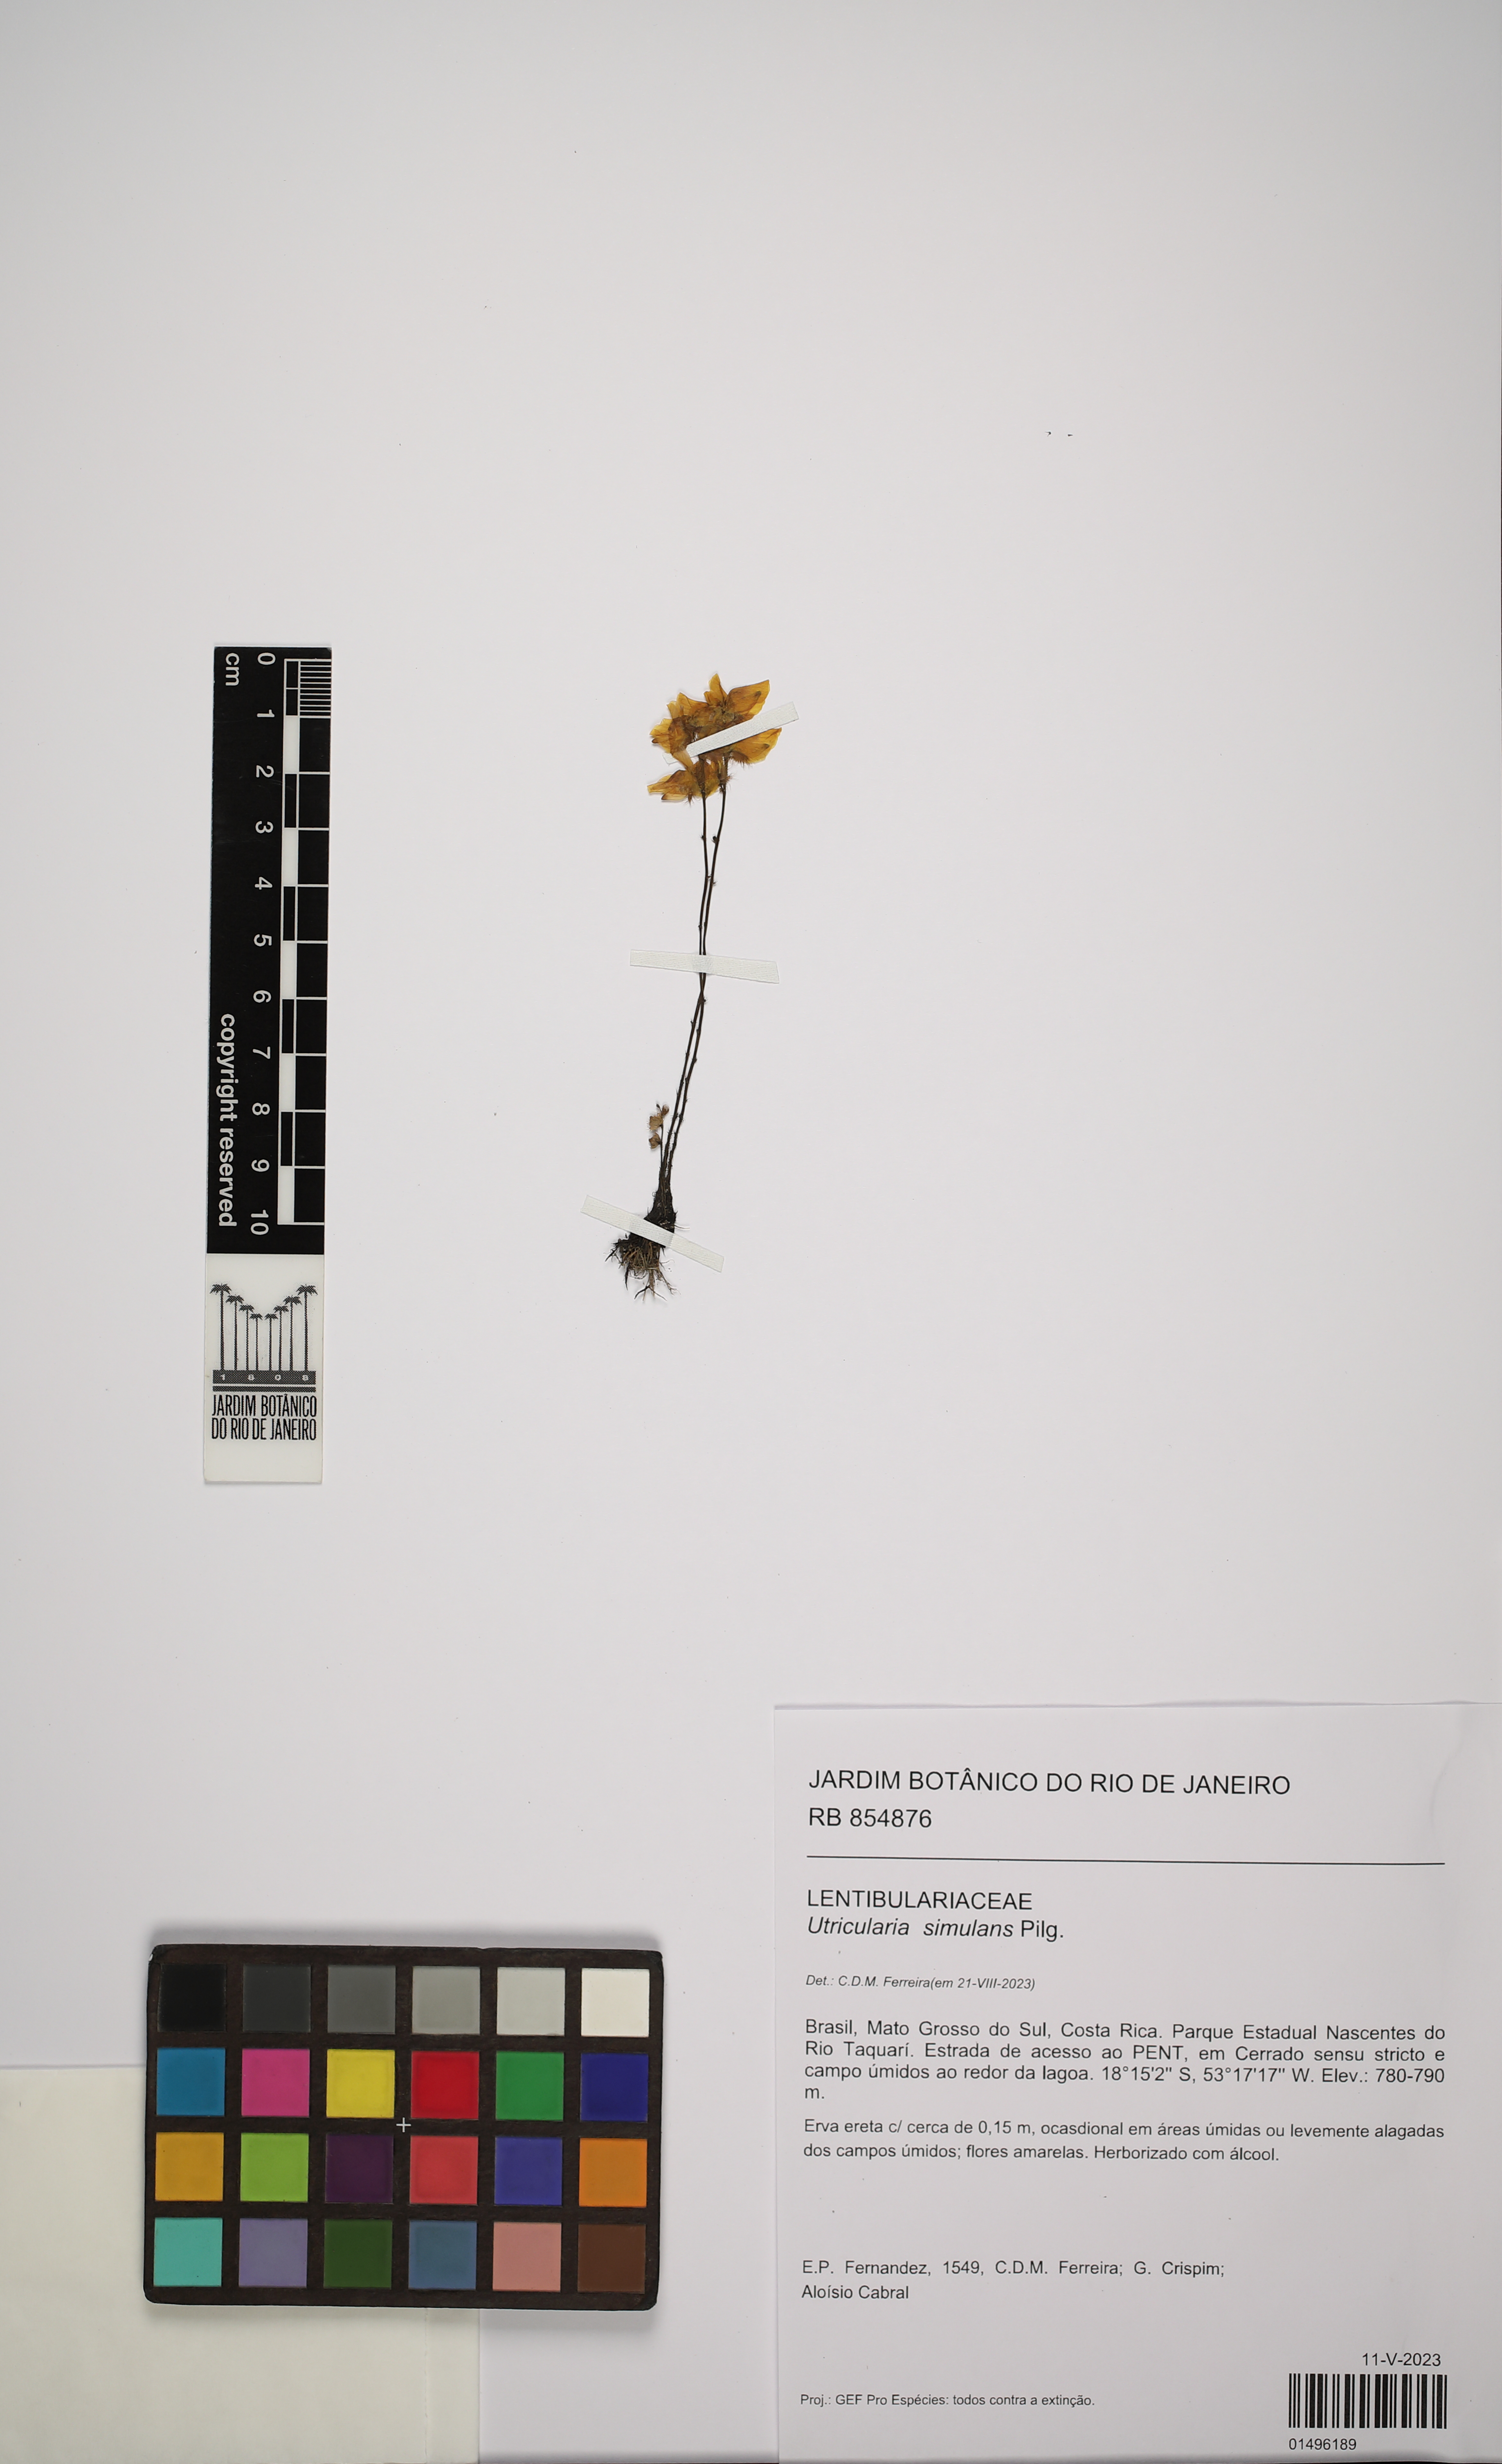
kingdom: Plantae
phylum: Tracheophyta
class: Magnoliopsida
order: Lamiales
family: Lentibulariaceae
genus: Utricularia
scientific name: Utricularia simulans
